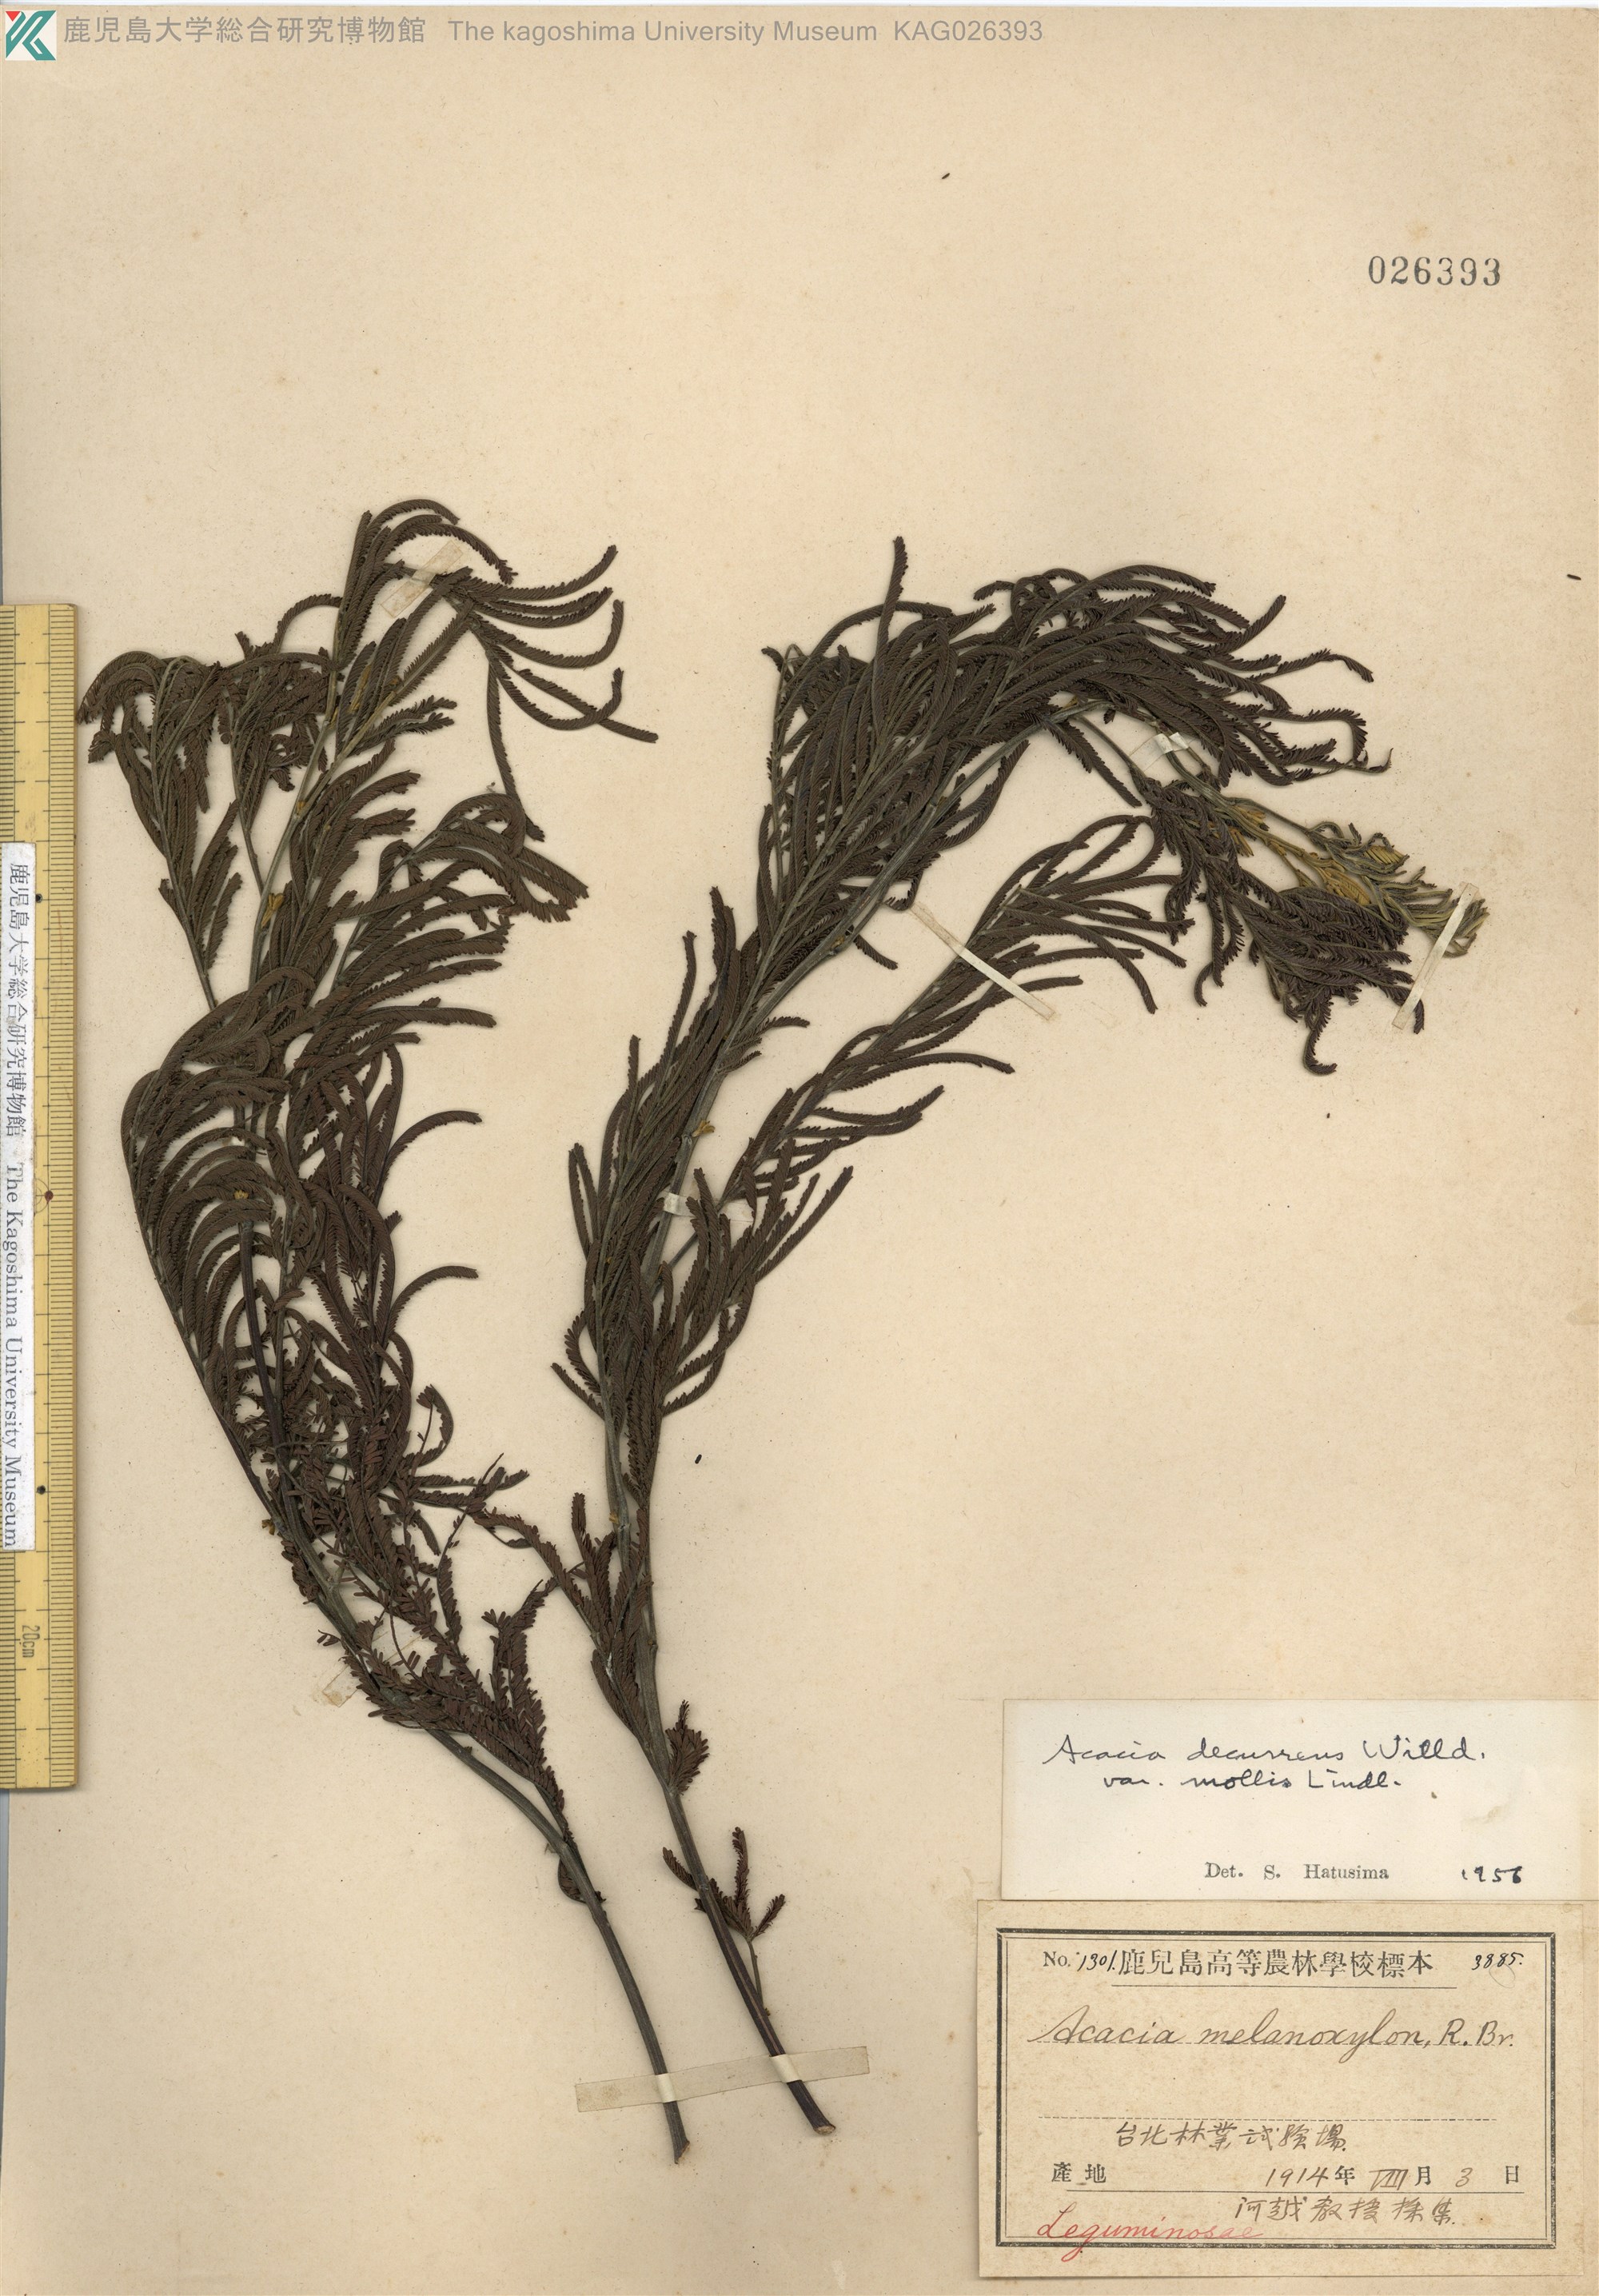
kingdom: Plantae
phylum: Tracheophyta
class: Magnoliopsida
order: Fabales
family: Fabaceae
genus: Acacia
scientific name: Acacia dealbata
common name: Silver wattle
